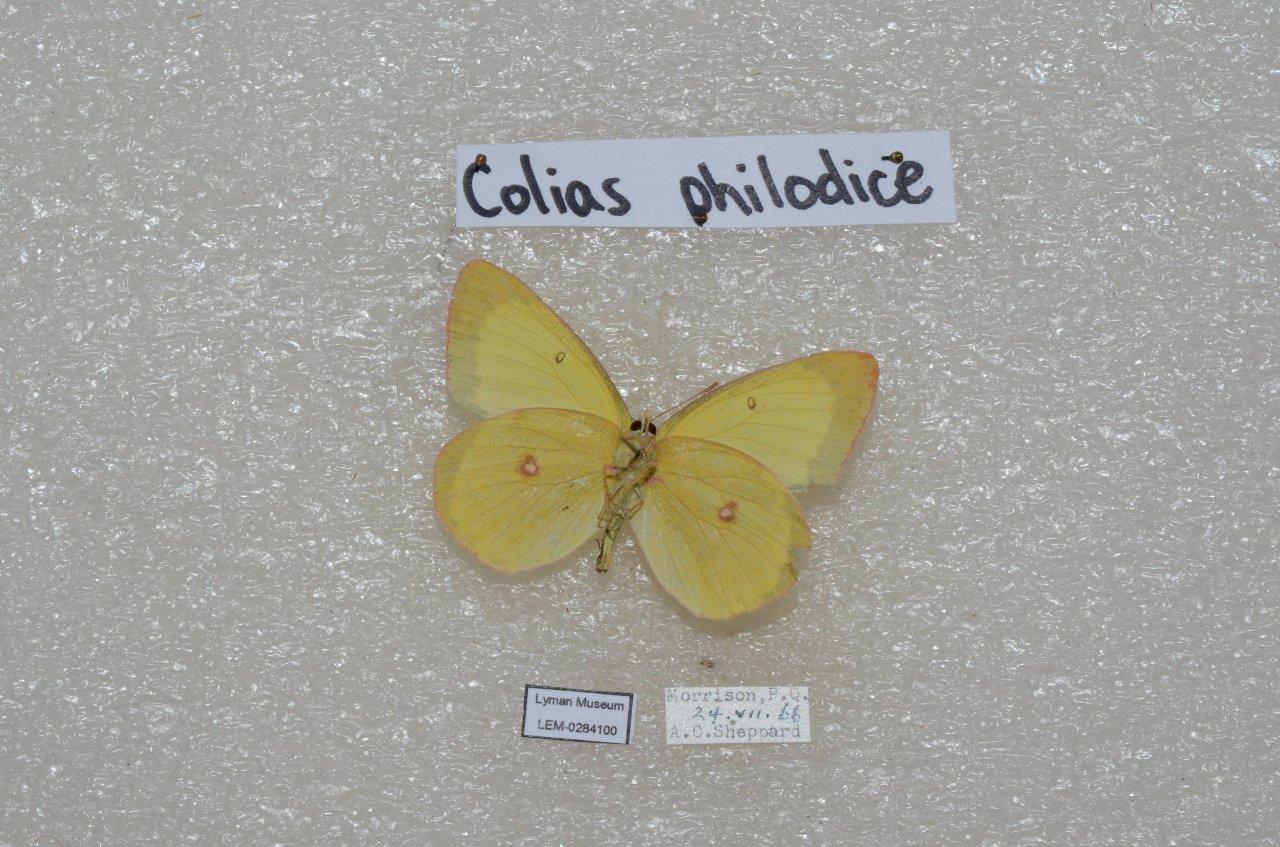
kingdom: Animalia
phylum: Arthropoda
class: Insecta
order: Lepidoptera
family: Pieridae
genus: Colias
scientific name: Colias philodice
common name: Clouded Sulphur
